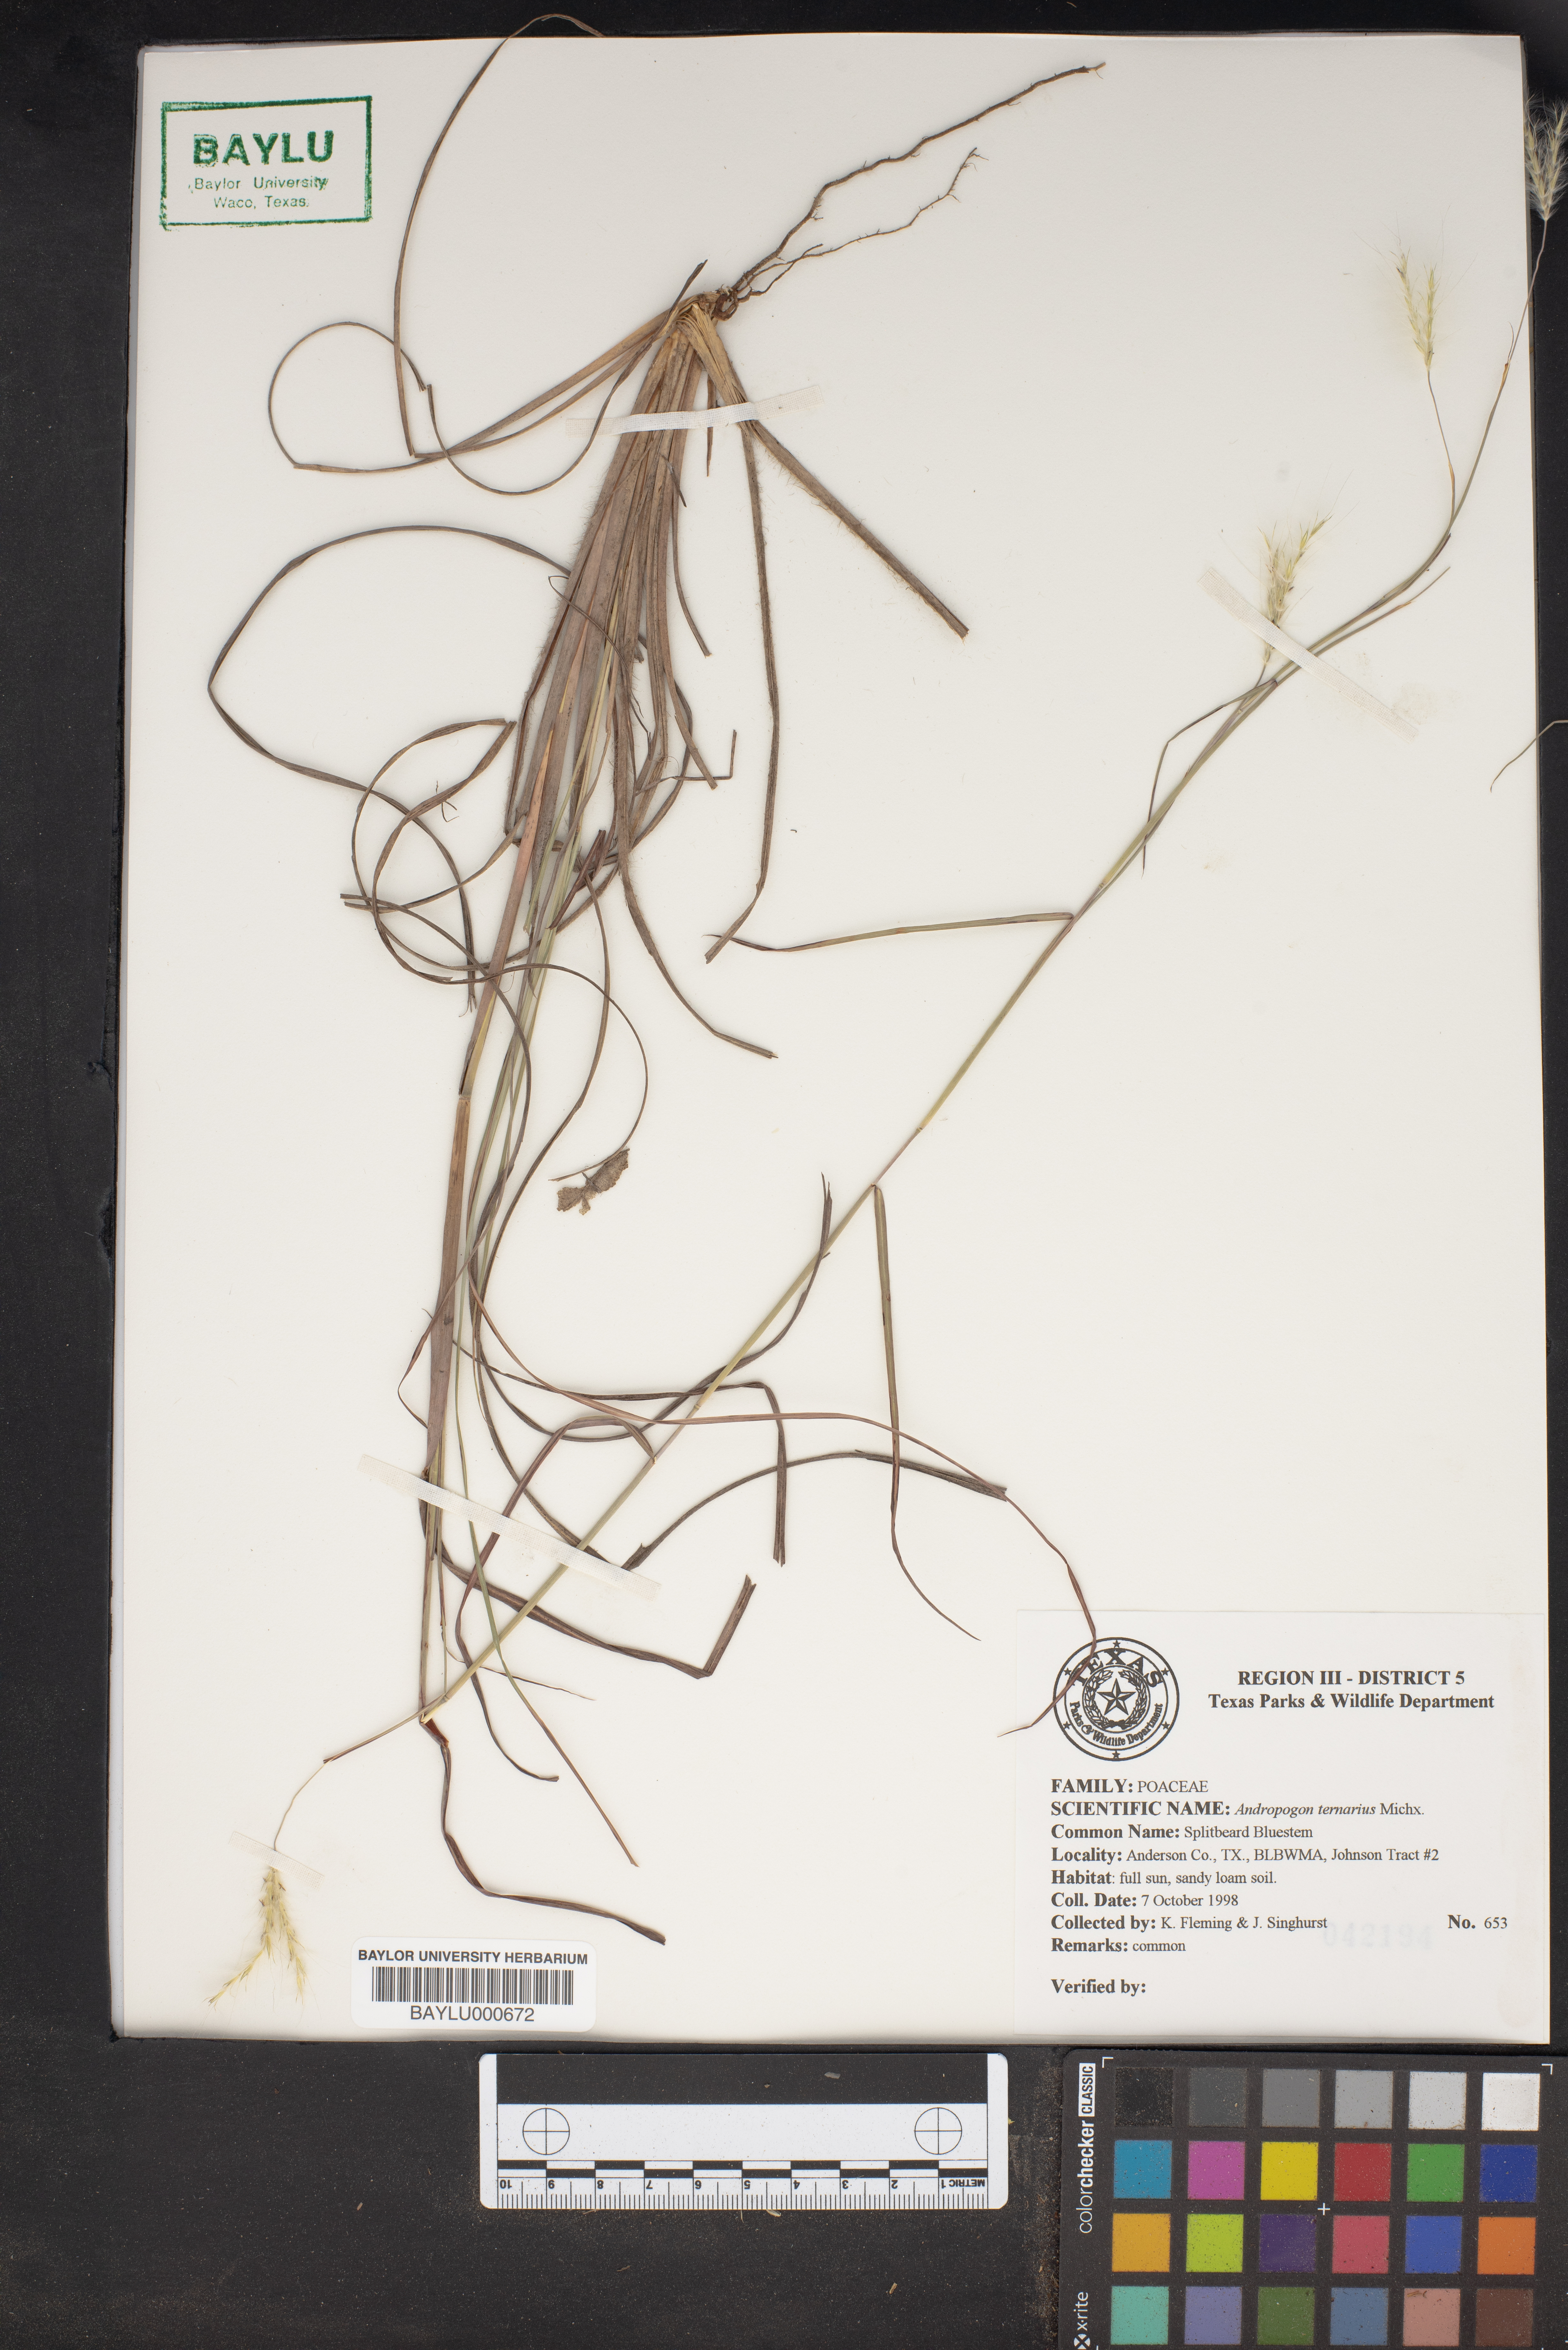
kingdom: Plantae
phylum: Tracheophyta
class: Liliopsida
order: Poales
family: Poaceae
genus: Andropogon
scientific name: Andropogon ternarius
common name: Split bluestem
